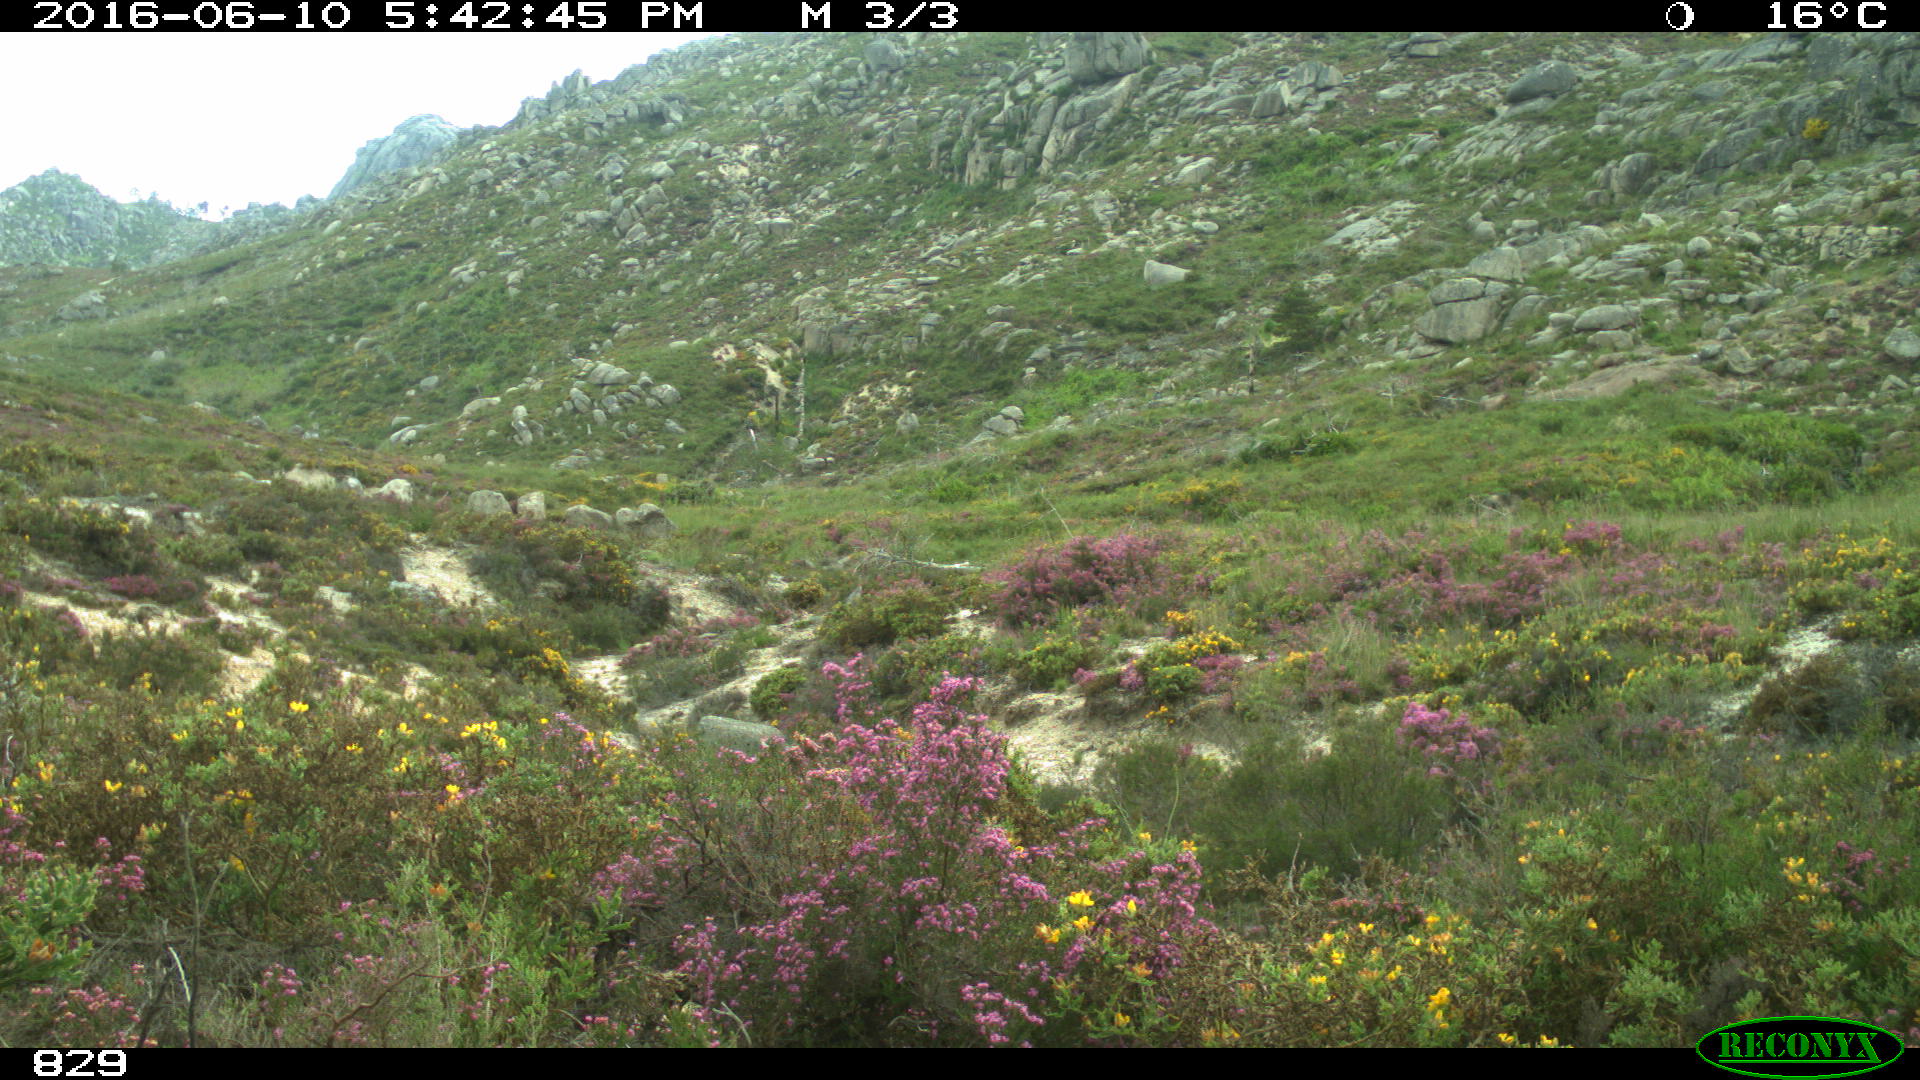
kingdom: Animalia
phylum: Chordata
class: Mammalia
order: Perissodactyla
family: Equidae
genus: Equus
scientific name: Equus caballus
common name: Horse
